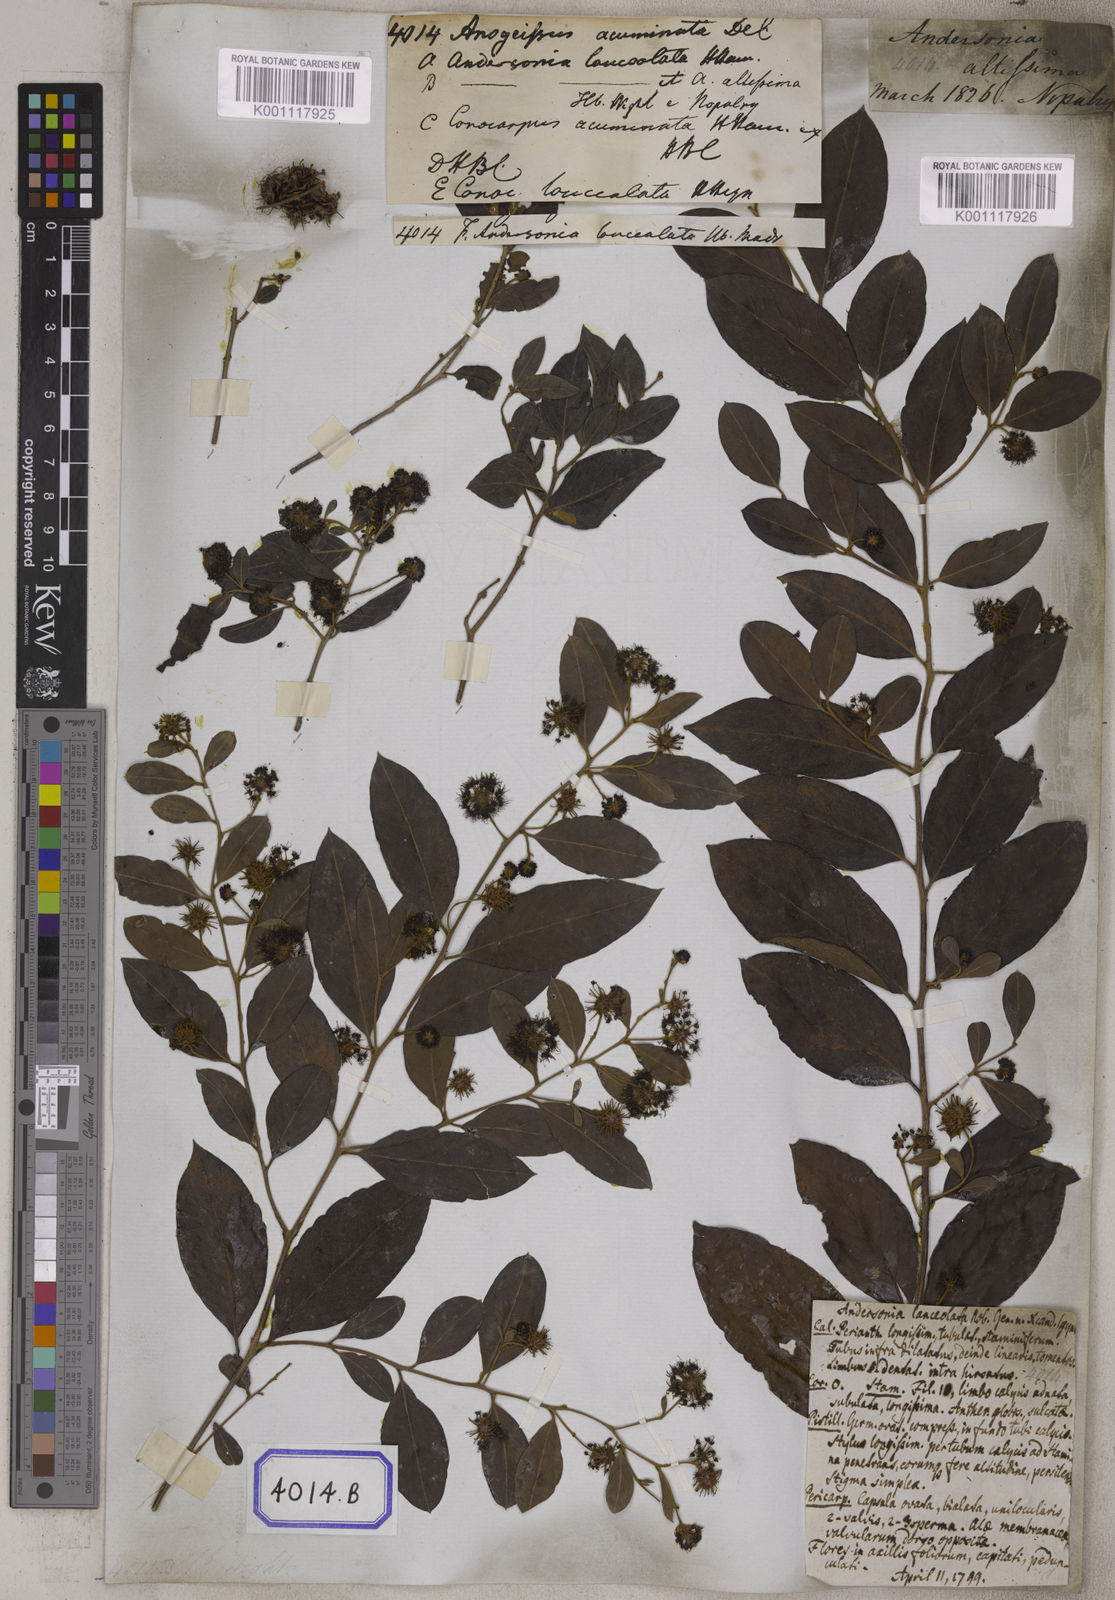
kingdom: Plantae
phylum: Tracheophyta
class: Magnoliopsida
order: Myrtales
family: Combretaceae
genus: Anogeissus
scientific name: Anogeissus
